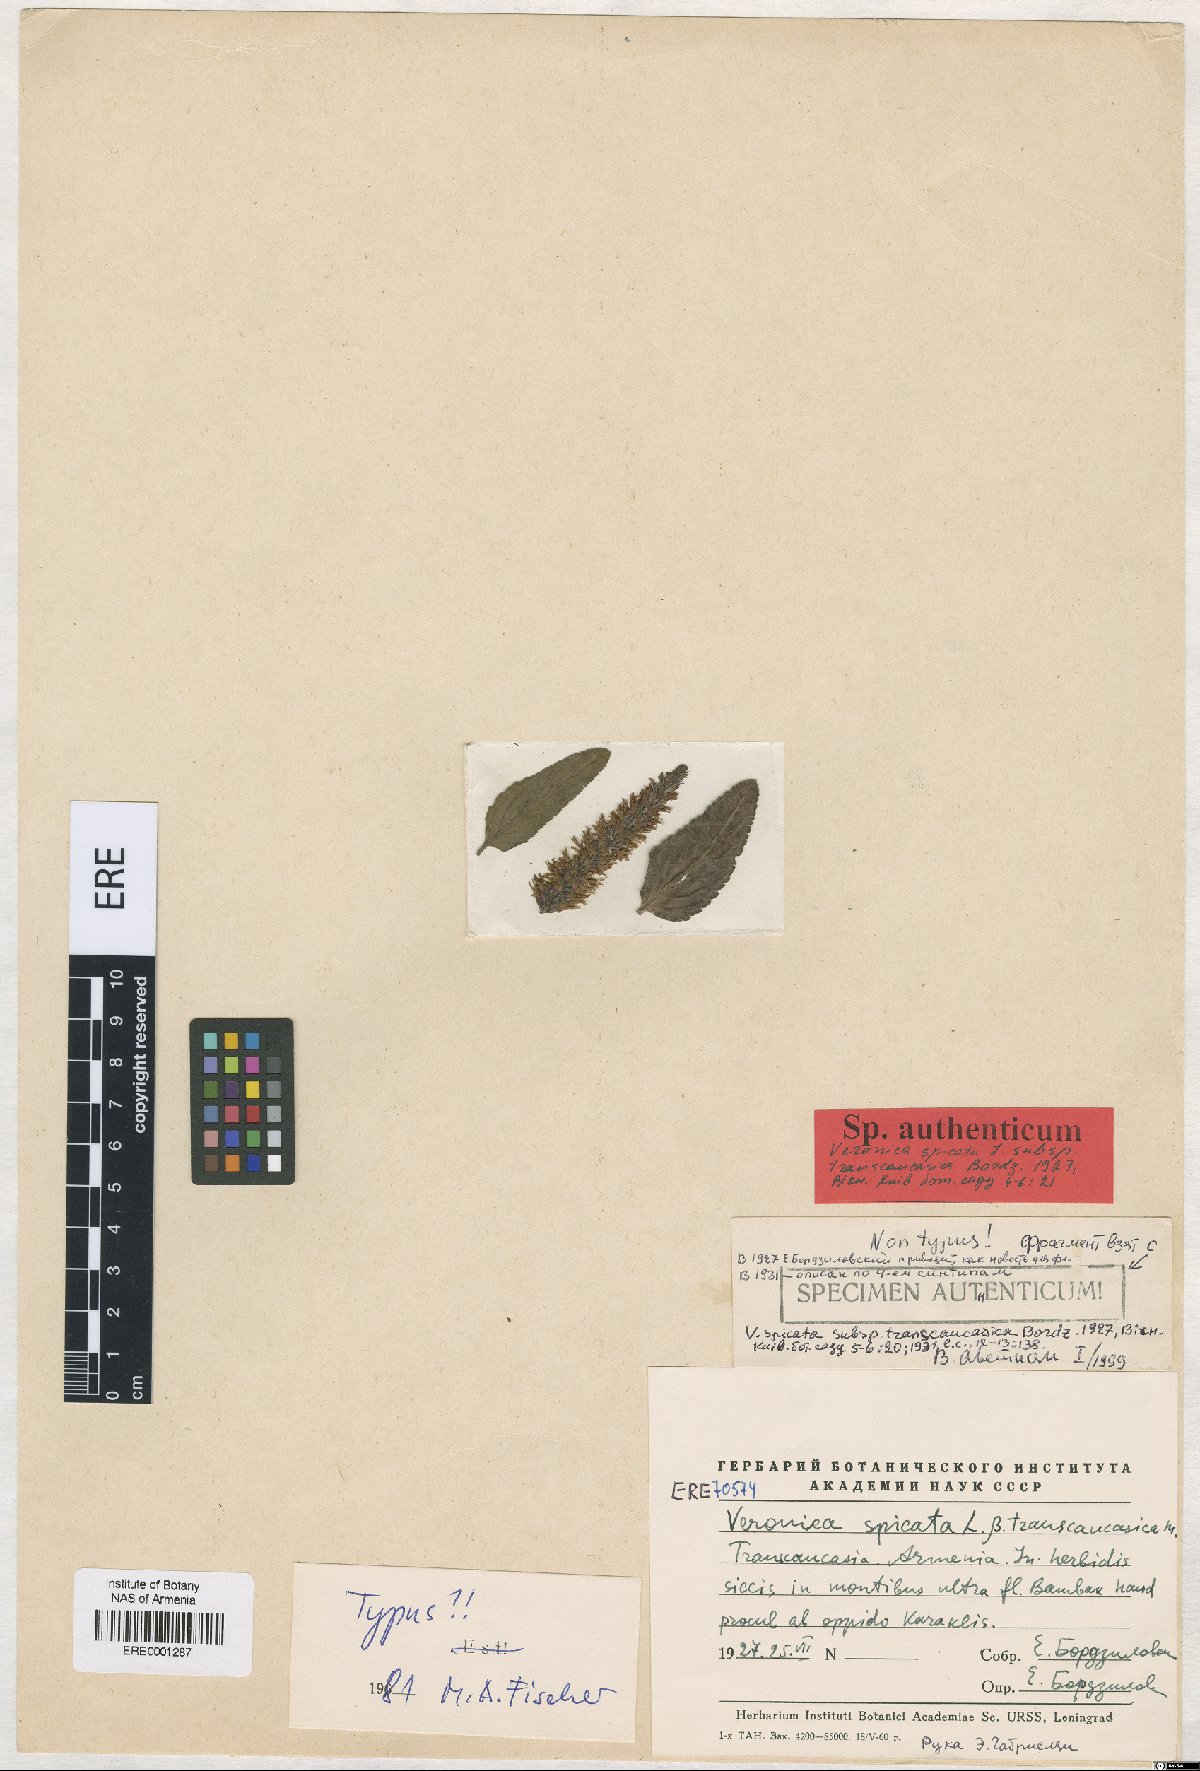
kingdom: Plantae
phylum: Tracheophyta
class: Magnoliopsida
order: Lamiales
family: Plantaginaceae
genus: Veronica
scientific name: Veronica orchidea
